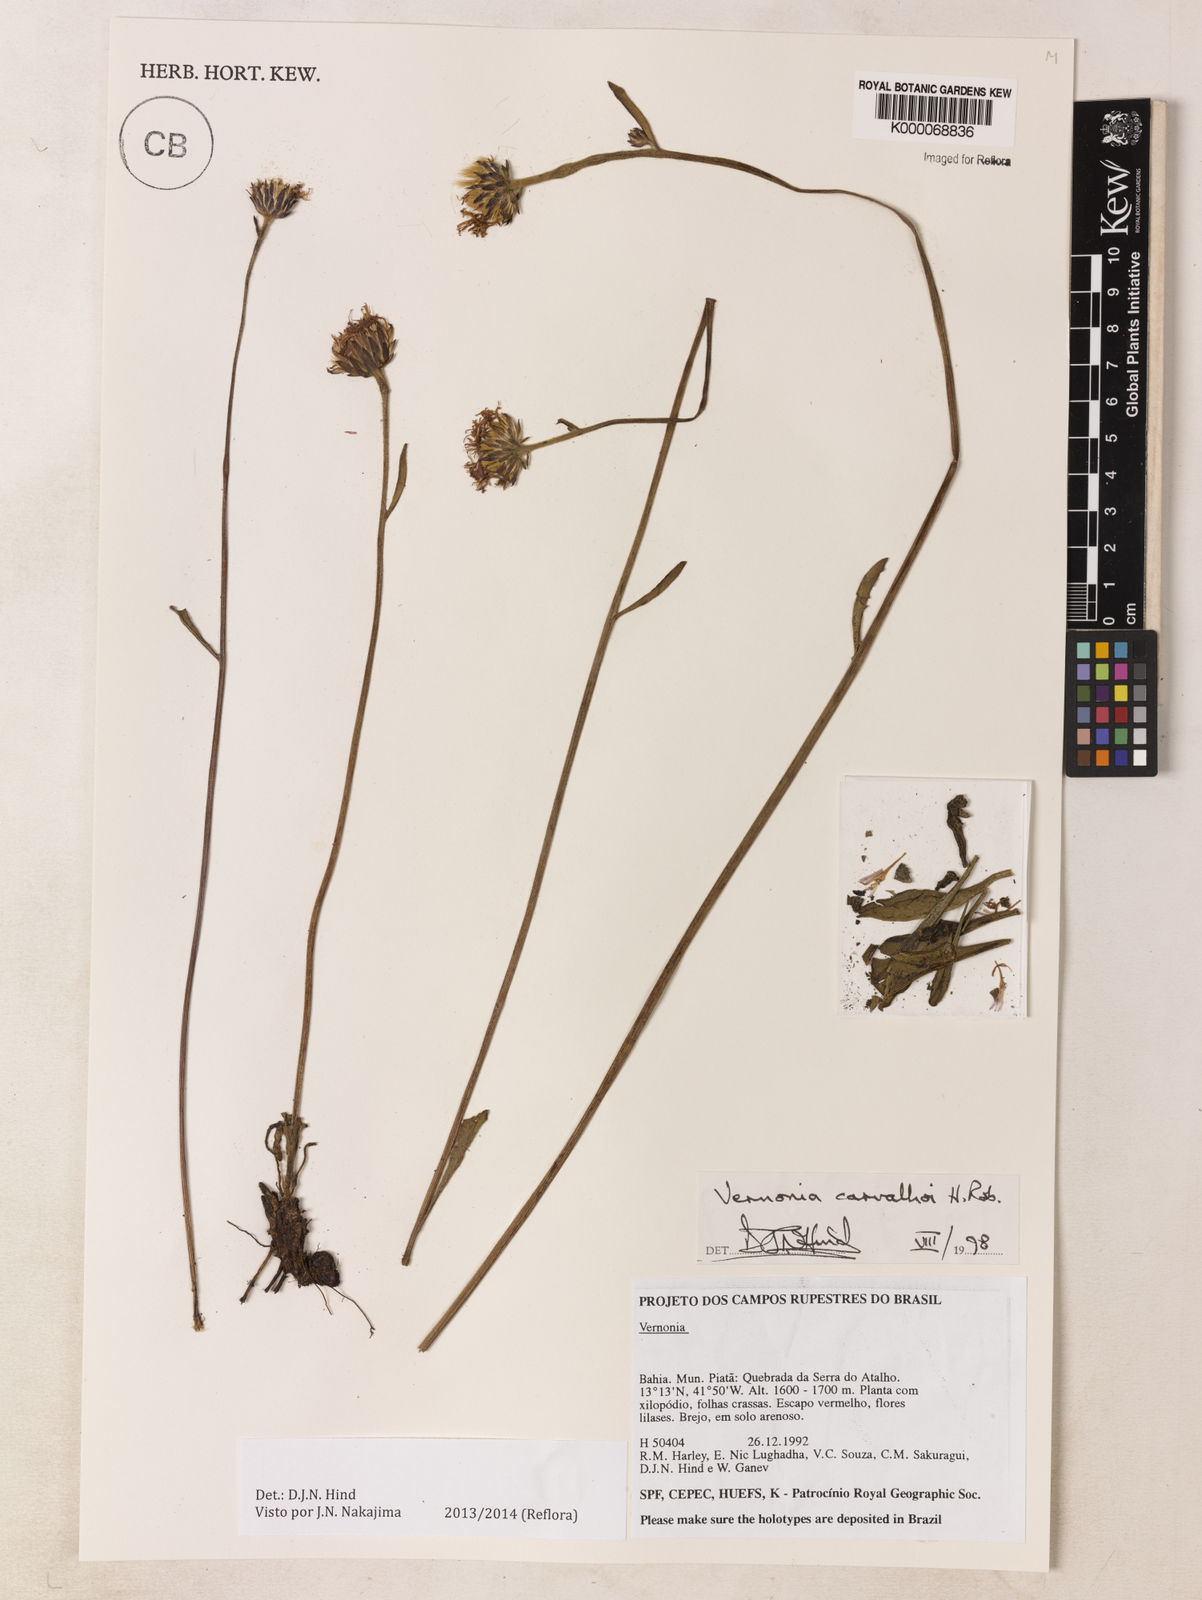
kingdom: Plantae
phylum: Tracheophyta
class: Magnoliopsida
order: Asterales
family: Asteraceae
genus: Lessingianthus
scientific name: Lessingianthus carvalhoi
